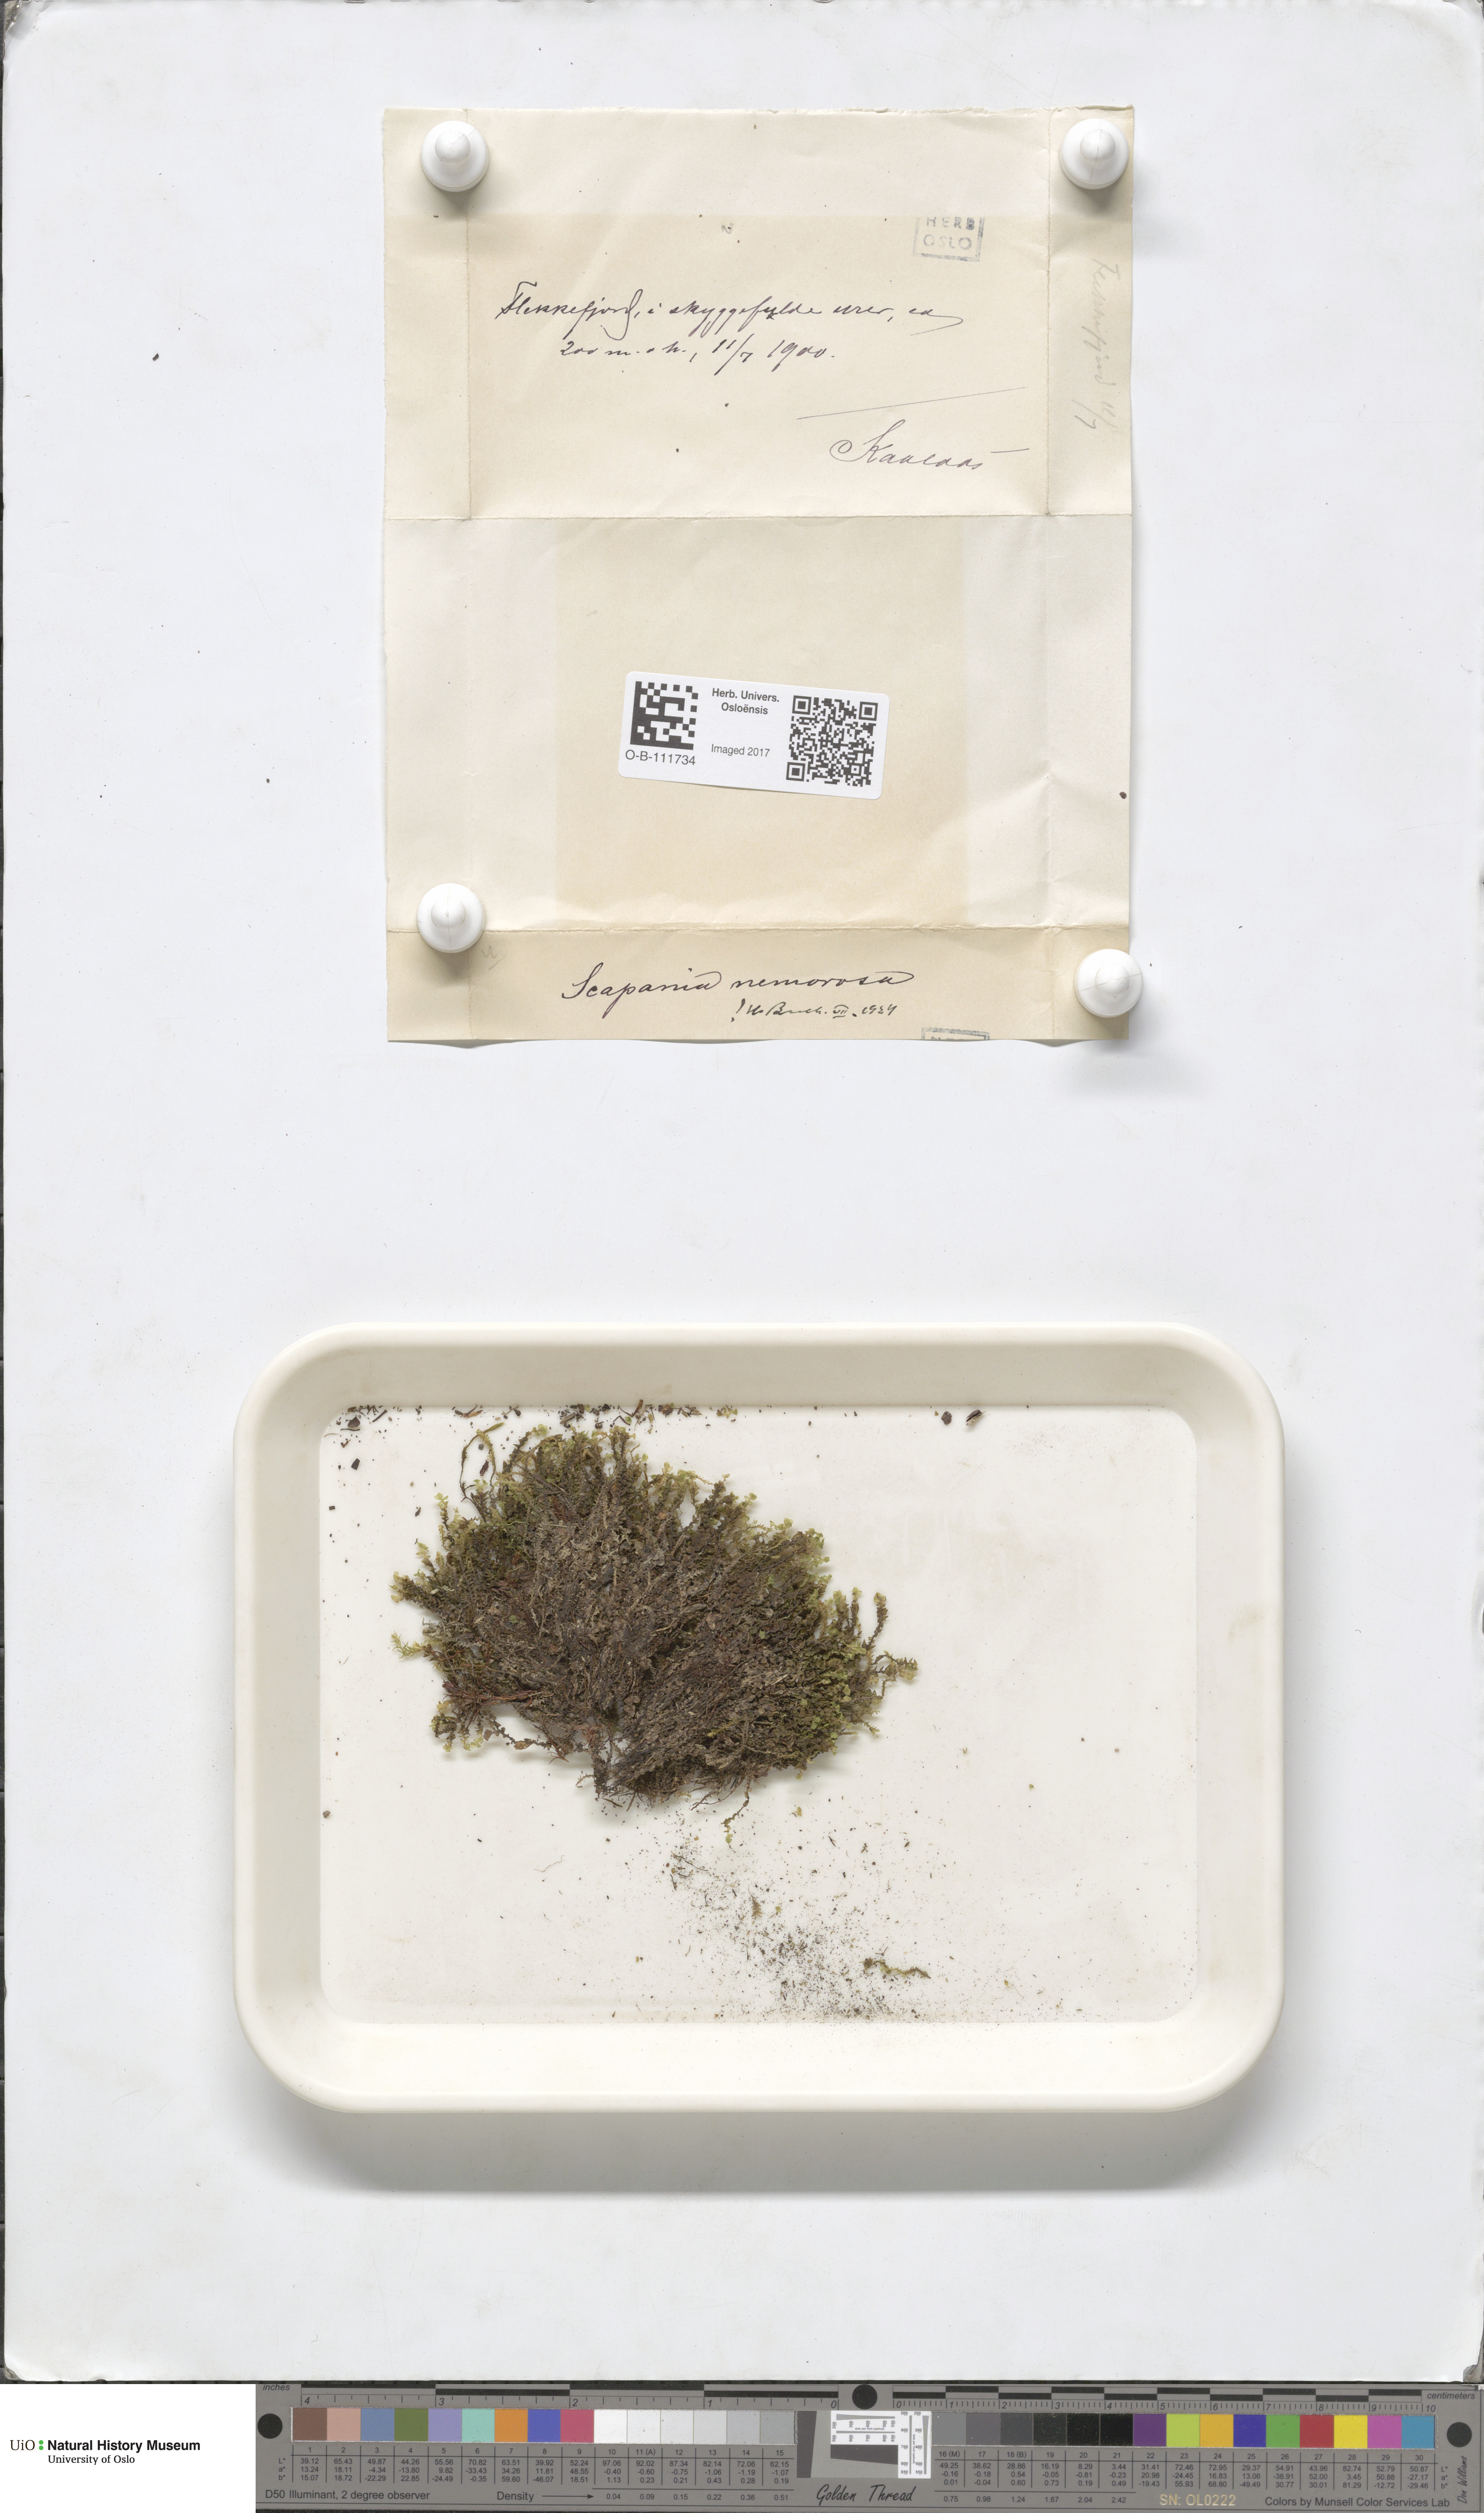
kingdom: Plantae
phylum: Marchantiophyta
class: Jungermanniopsida
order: Jungermanniales
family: Scapaniaceae
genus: Scapania
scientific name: Scapania nemorea
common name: Grove earwort
